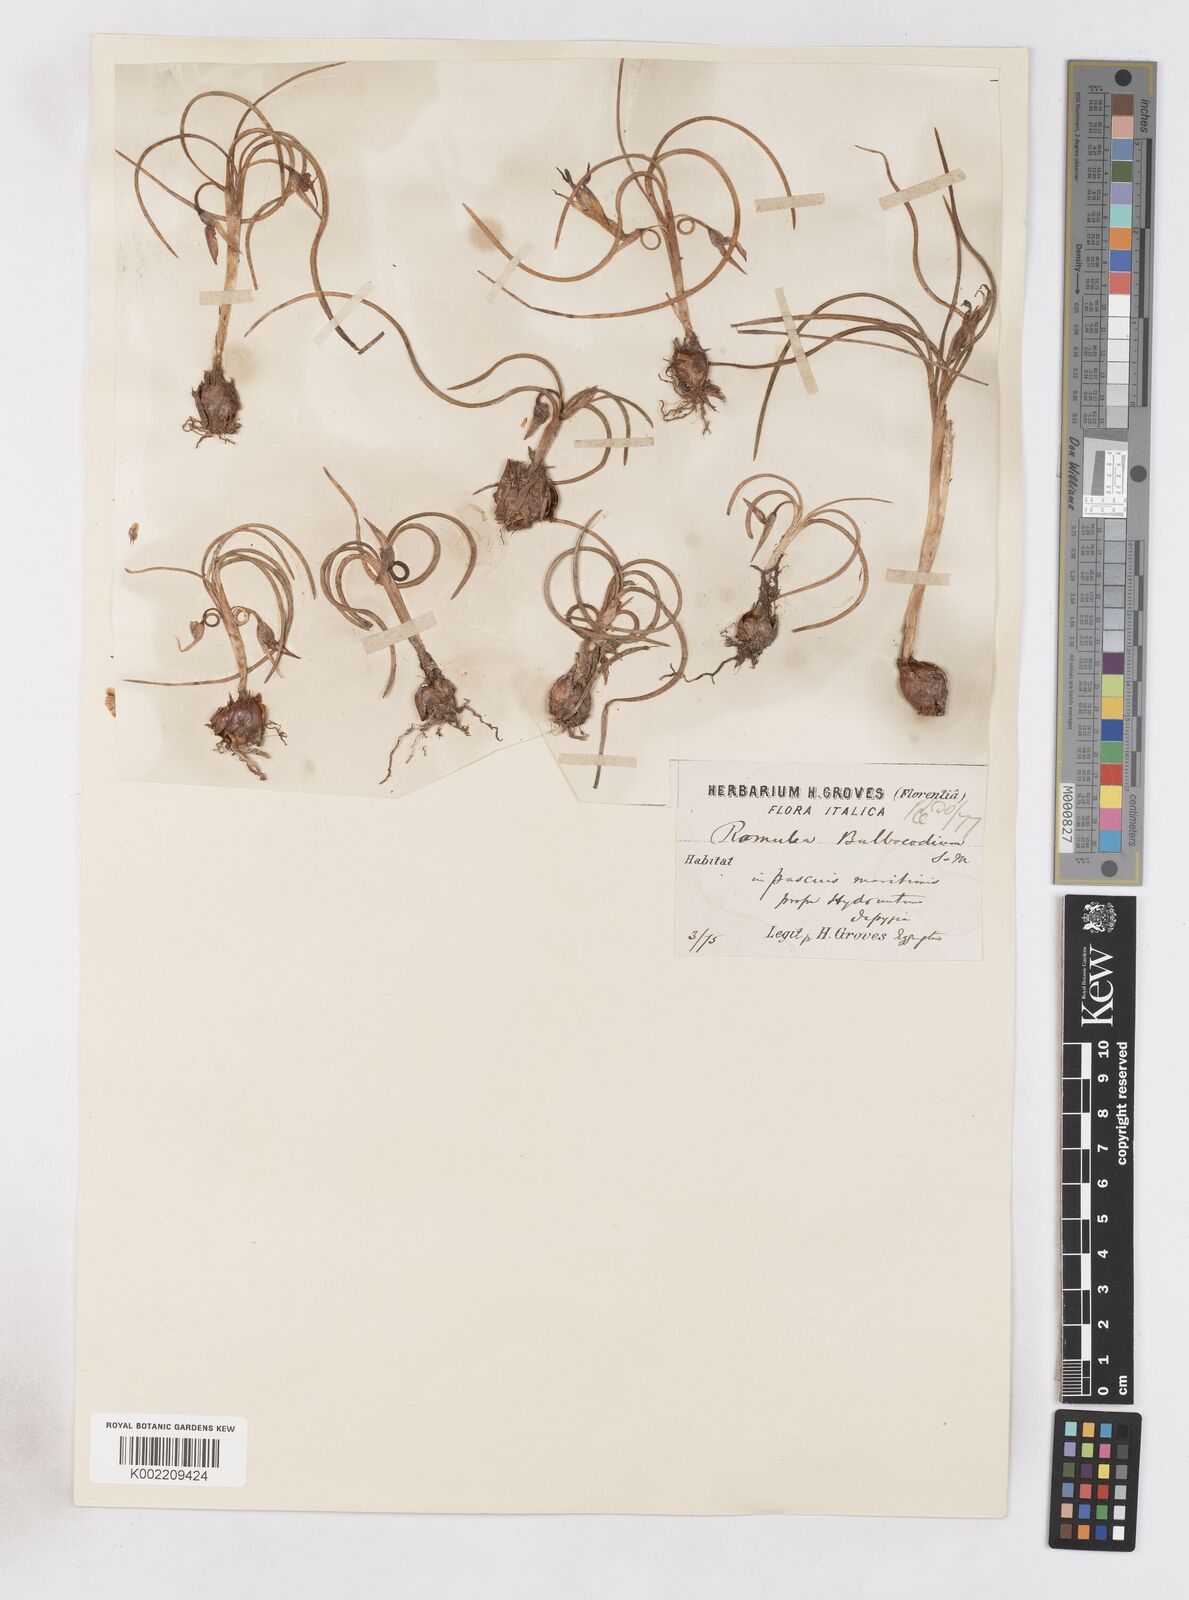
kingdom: Plantae
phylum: Tracheophyta
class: Liliopsida
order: Asparagales
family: Iridaceae
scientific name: Iridaceae
